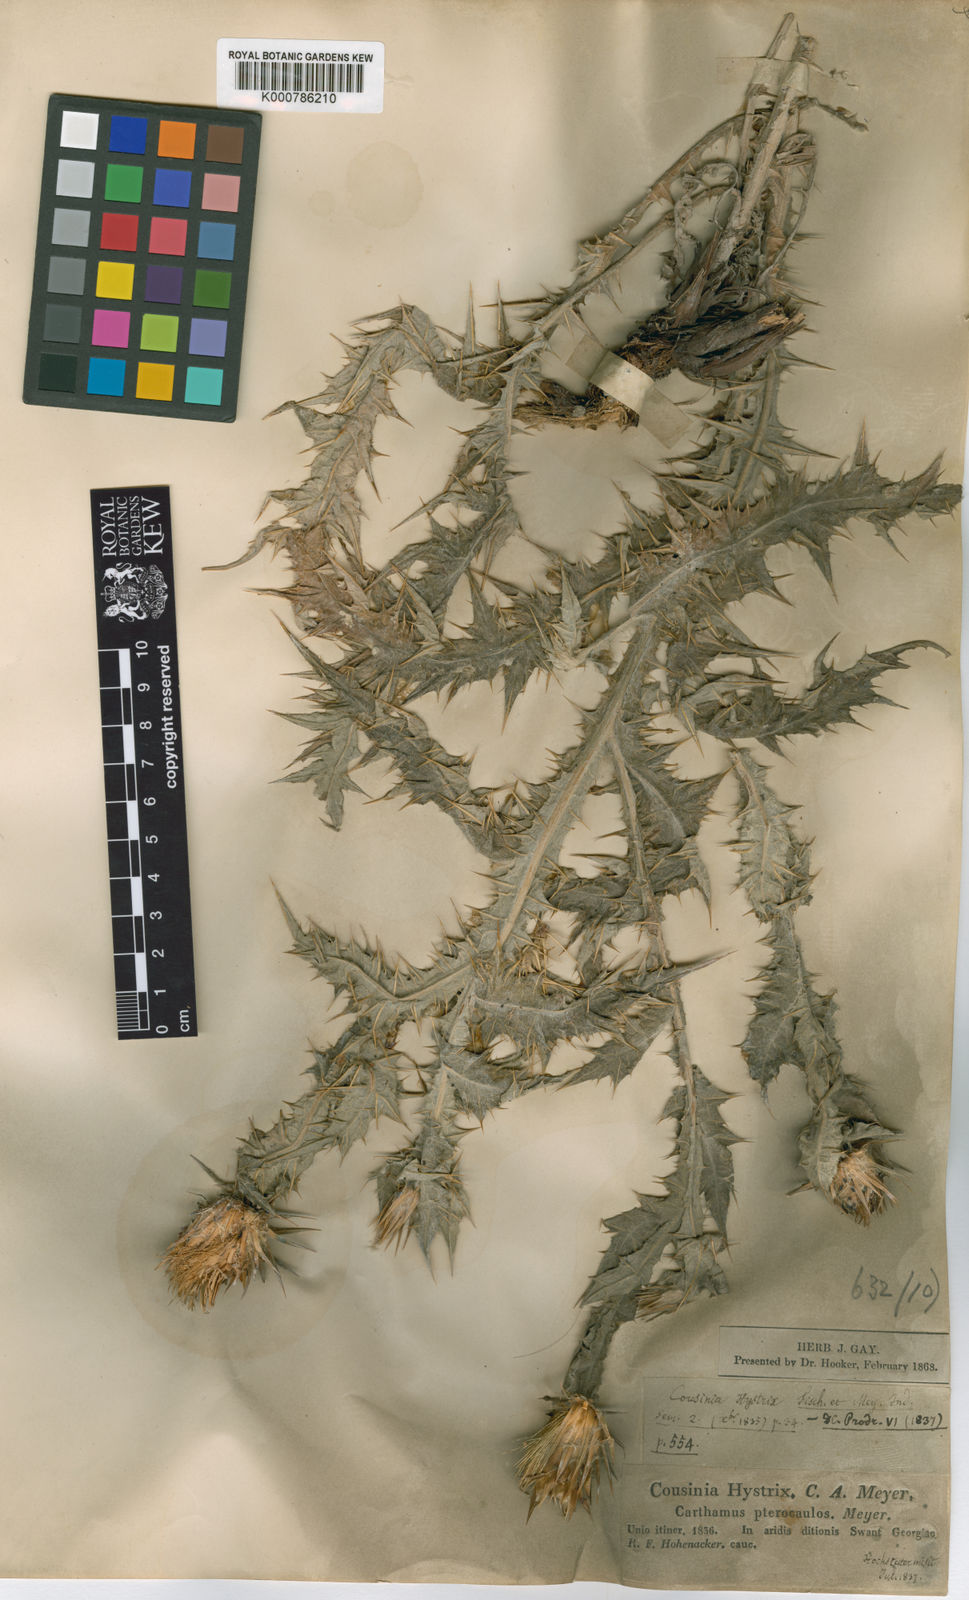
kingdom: Plantae
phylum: Tracheophyta
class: Magnoliopsida
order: Asterales
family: Asteraceae
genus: Cousinia
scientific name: Cousinia pterocaulos
